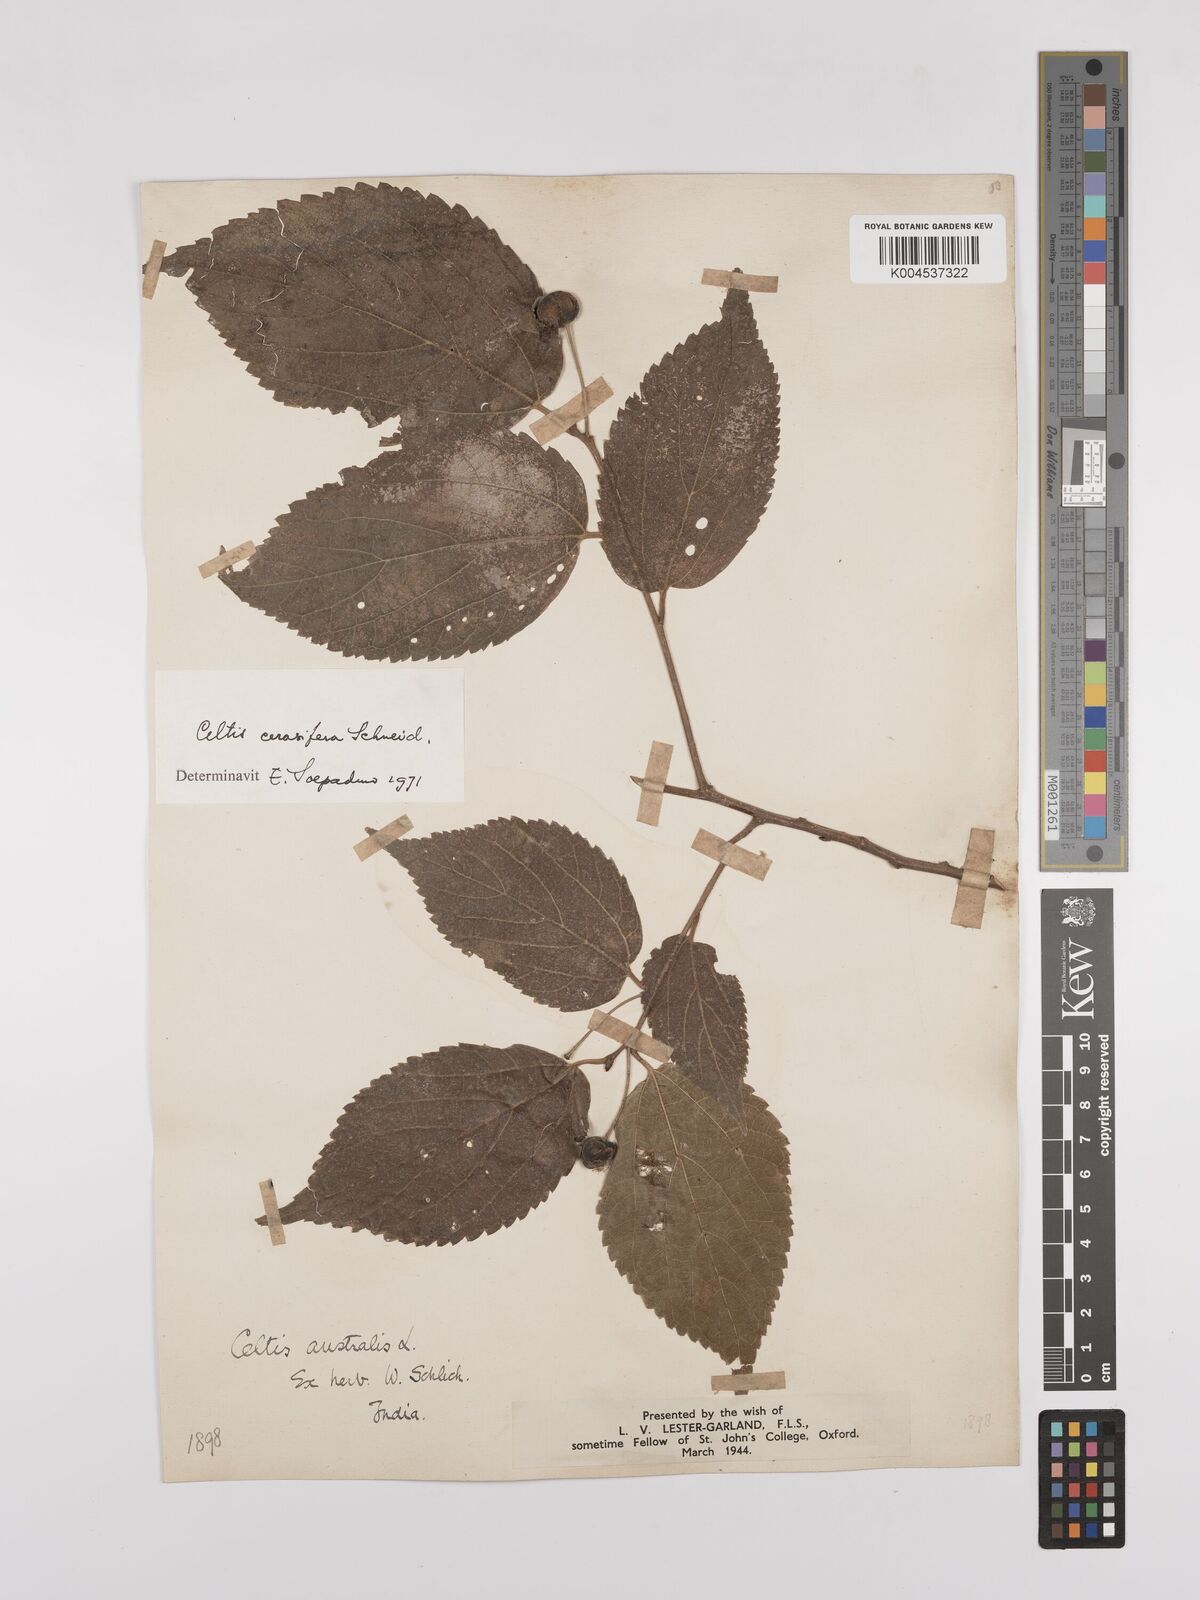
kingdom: Plantae
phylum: Tracheophyta
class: Magnoliopsida
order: Rosales
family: Cannabaceae
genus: Celtis
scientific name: Celtis cerasifera
